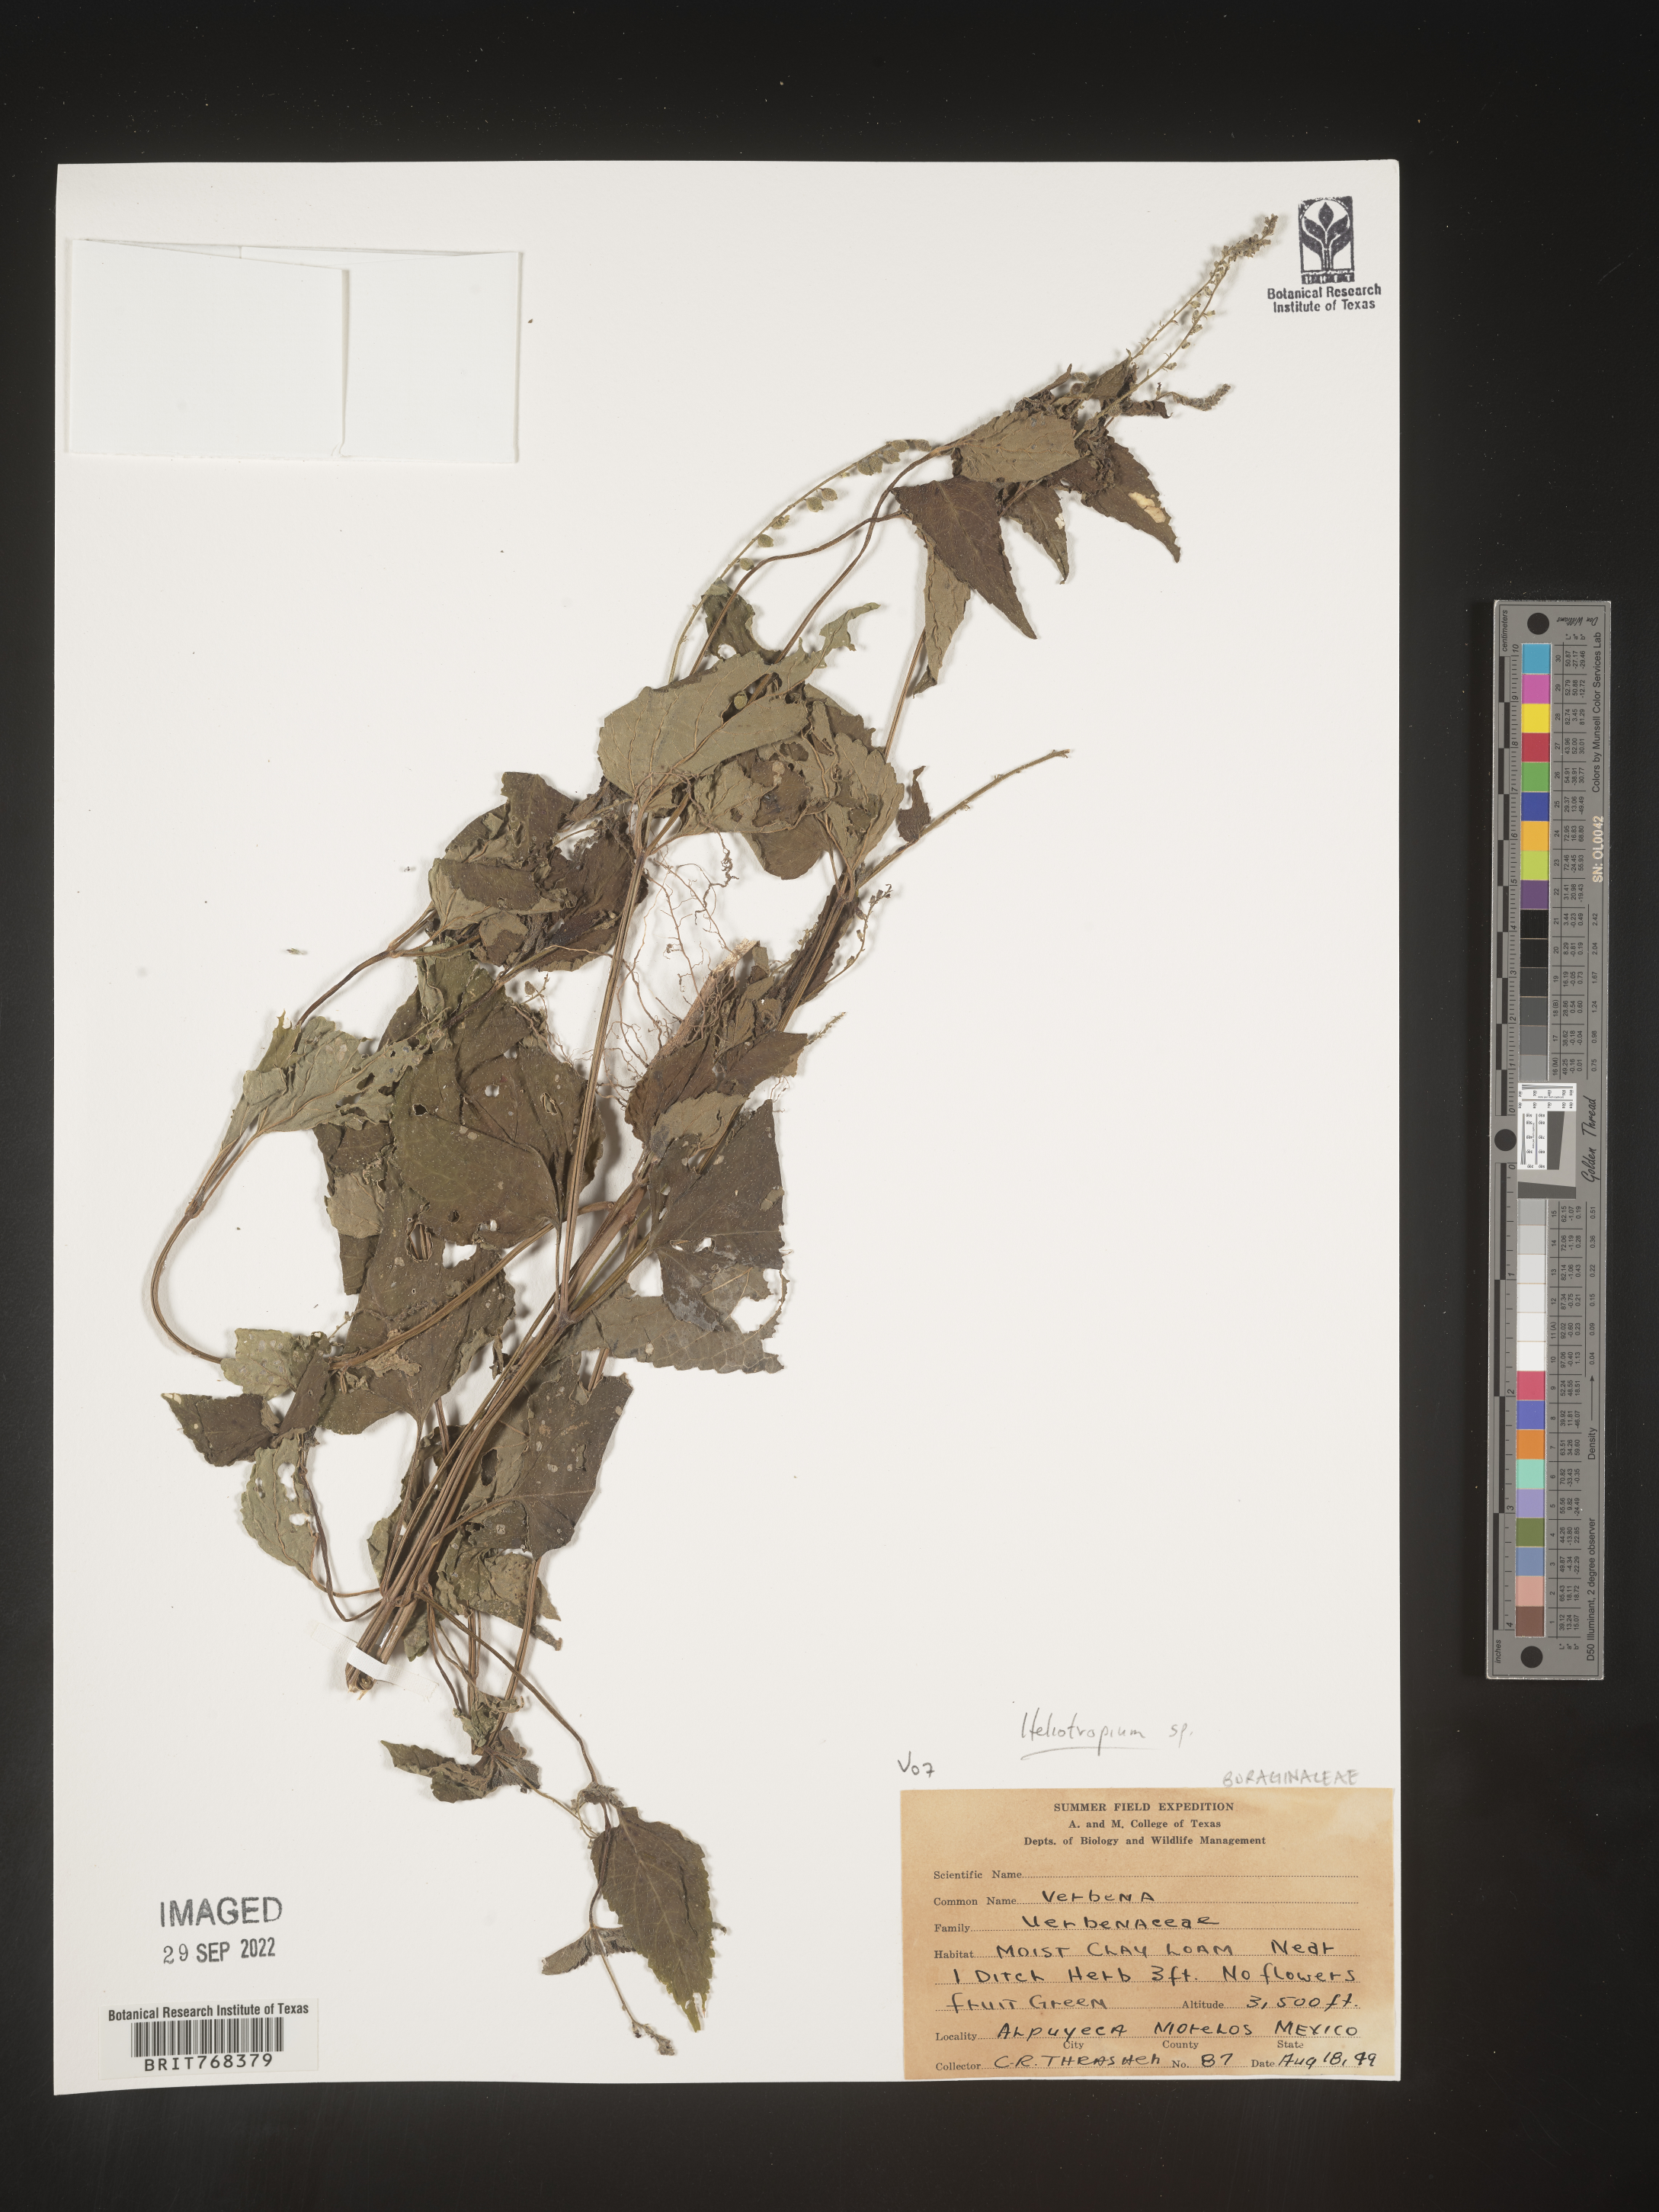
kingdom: Plantae
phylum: Tracheophyta
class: Magnoliopsida
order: Boraginales
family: Heliotropiaceae
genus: Heliotropium
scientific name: Heliotropium
